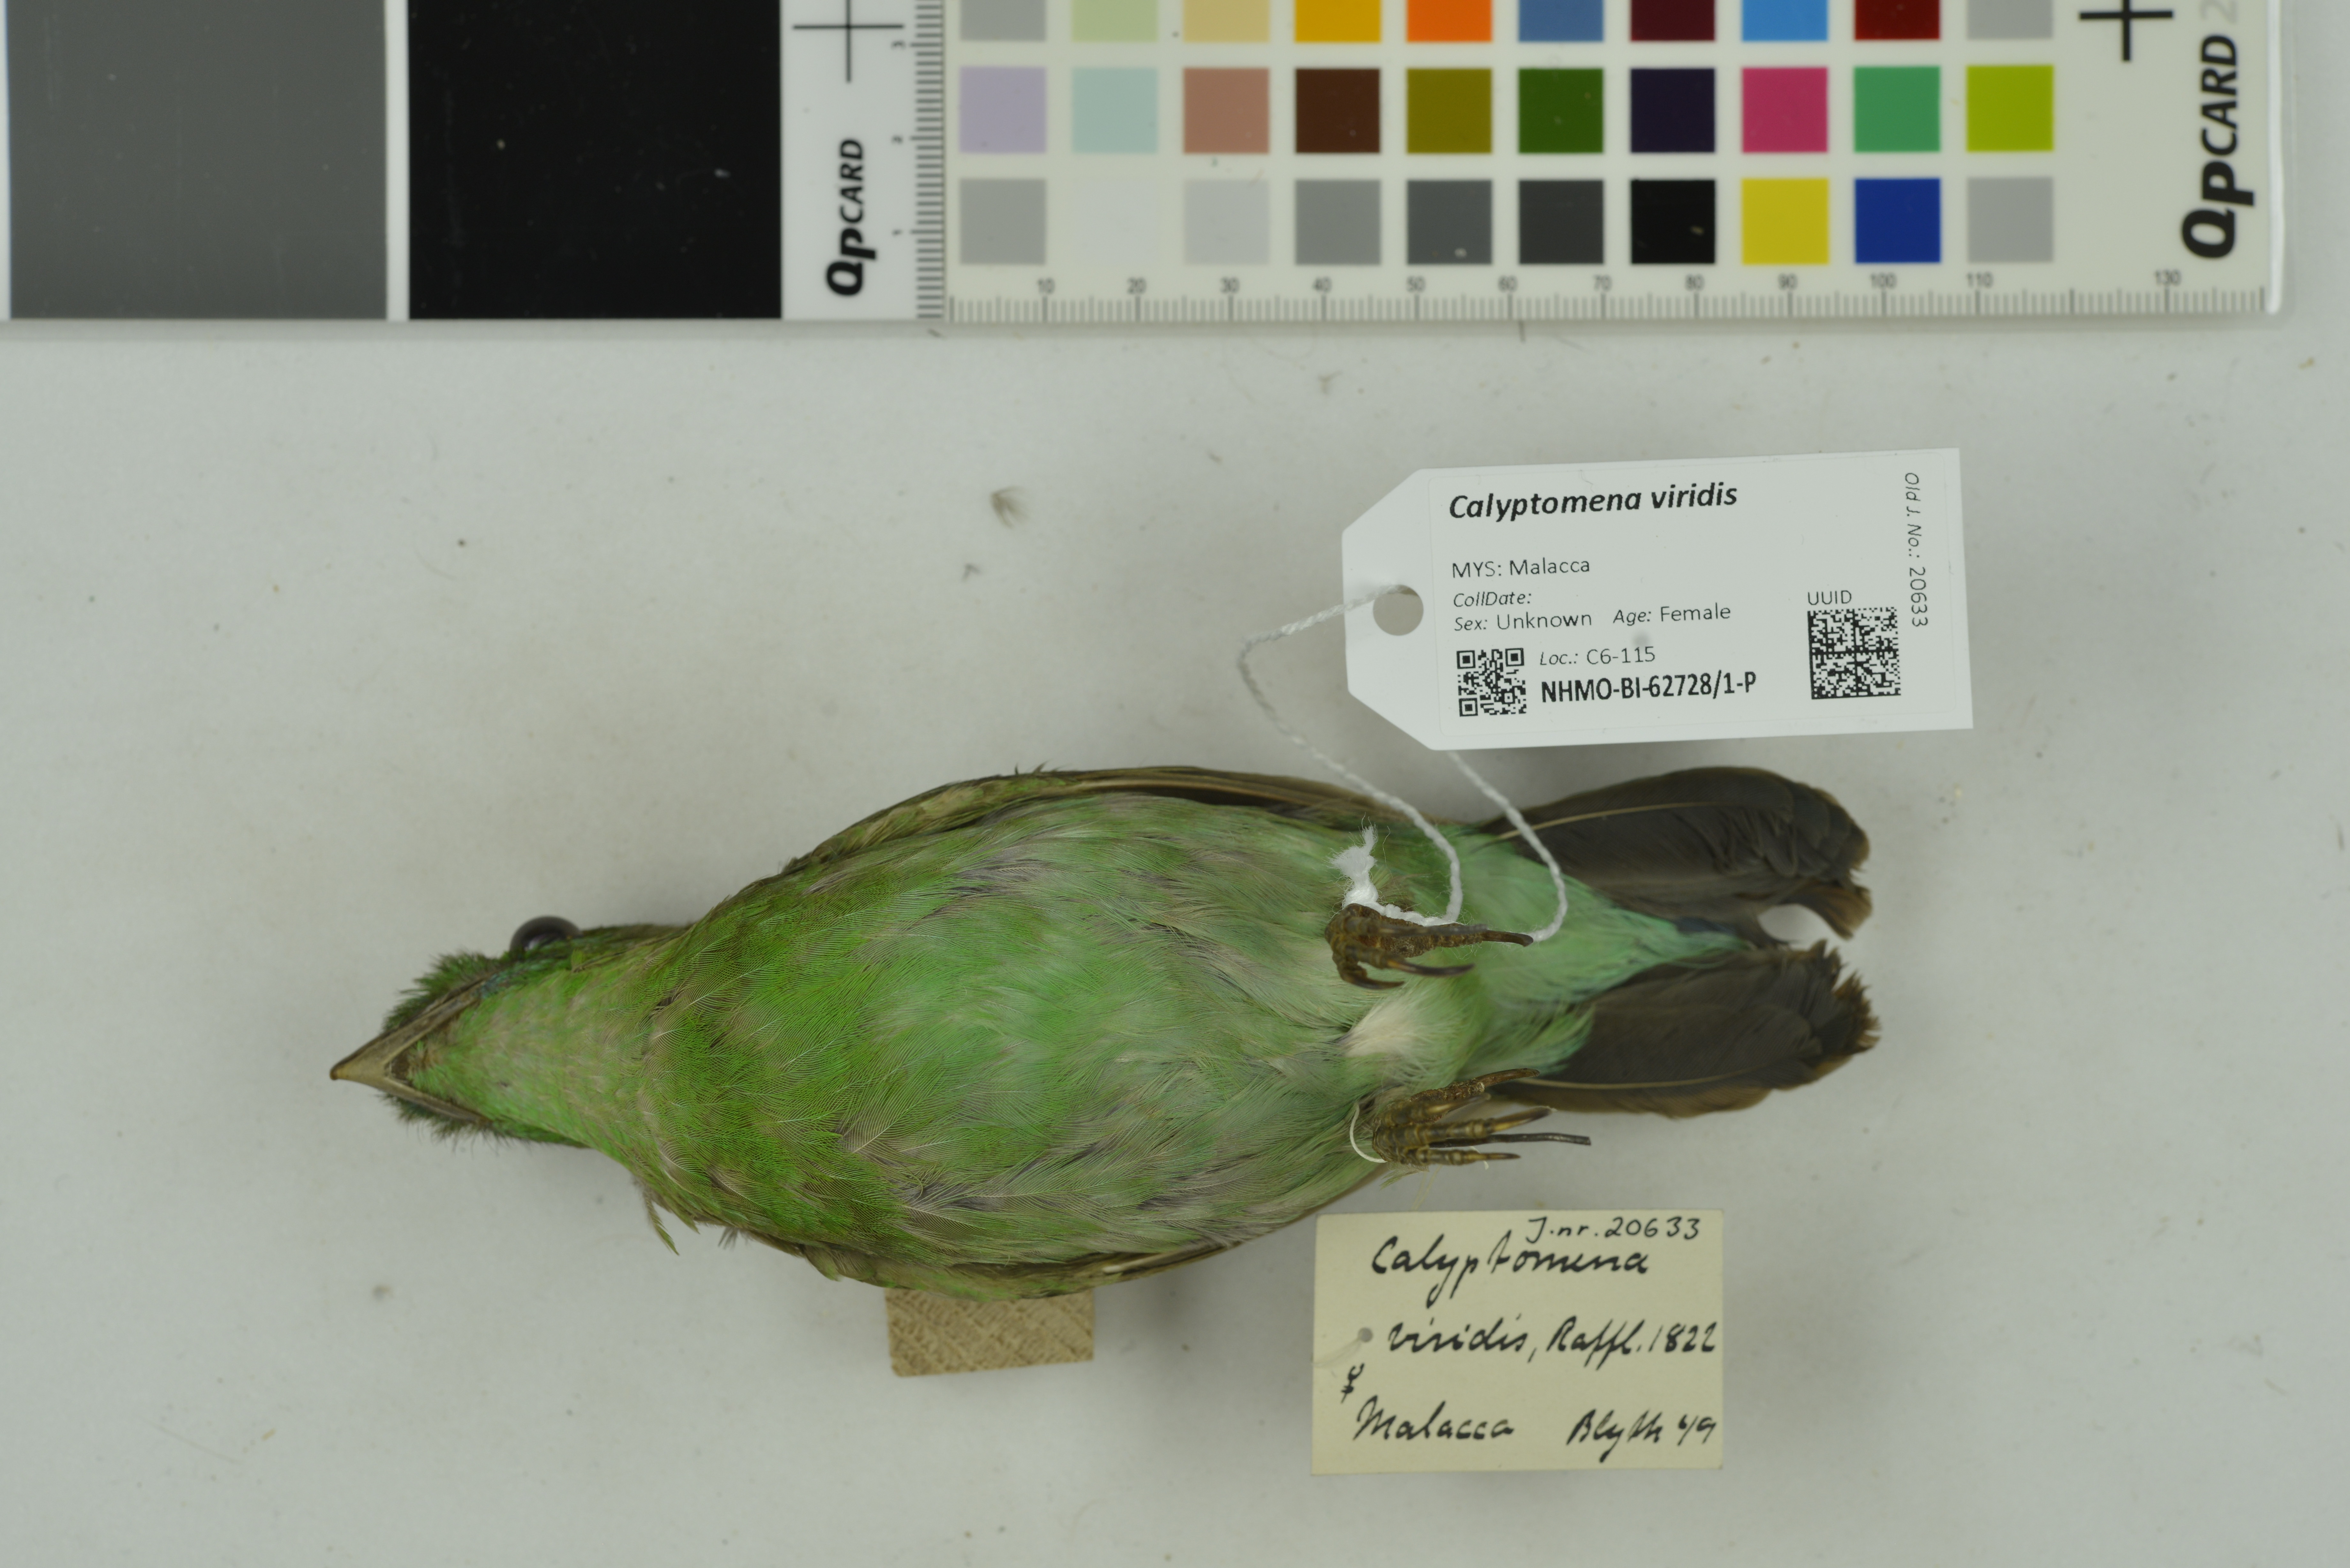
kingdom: Animalia
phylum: Chordata
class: Aves
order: Passeriformes
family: Eurylaimidae
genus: Calyptomena
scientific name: Calyptomena viridis
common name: Green broadbill
